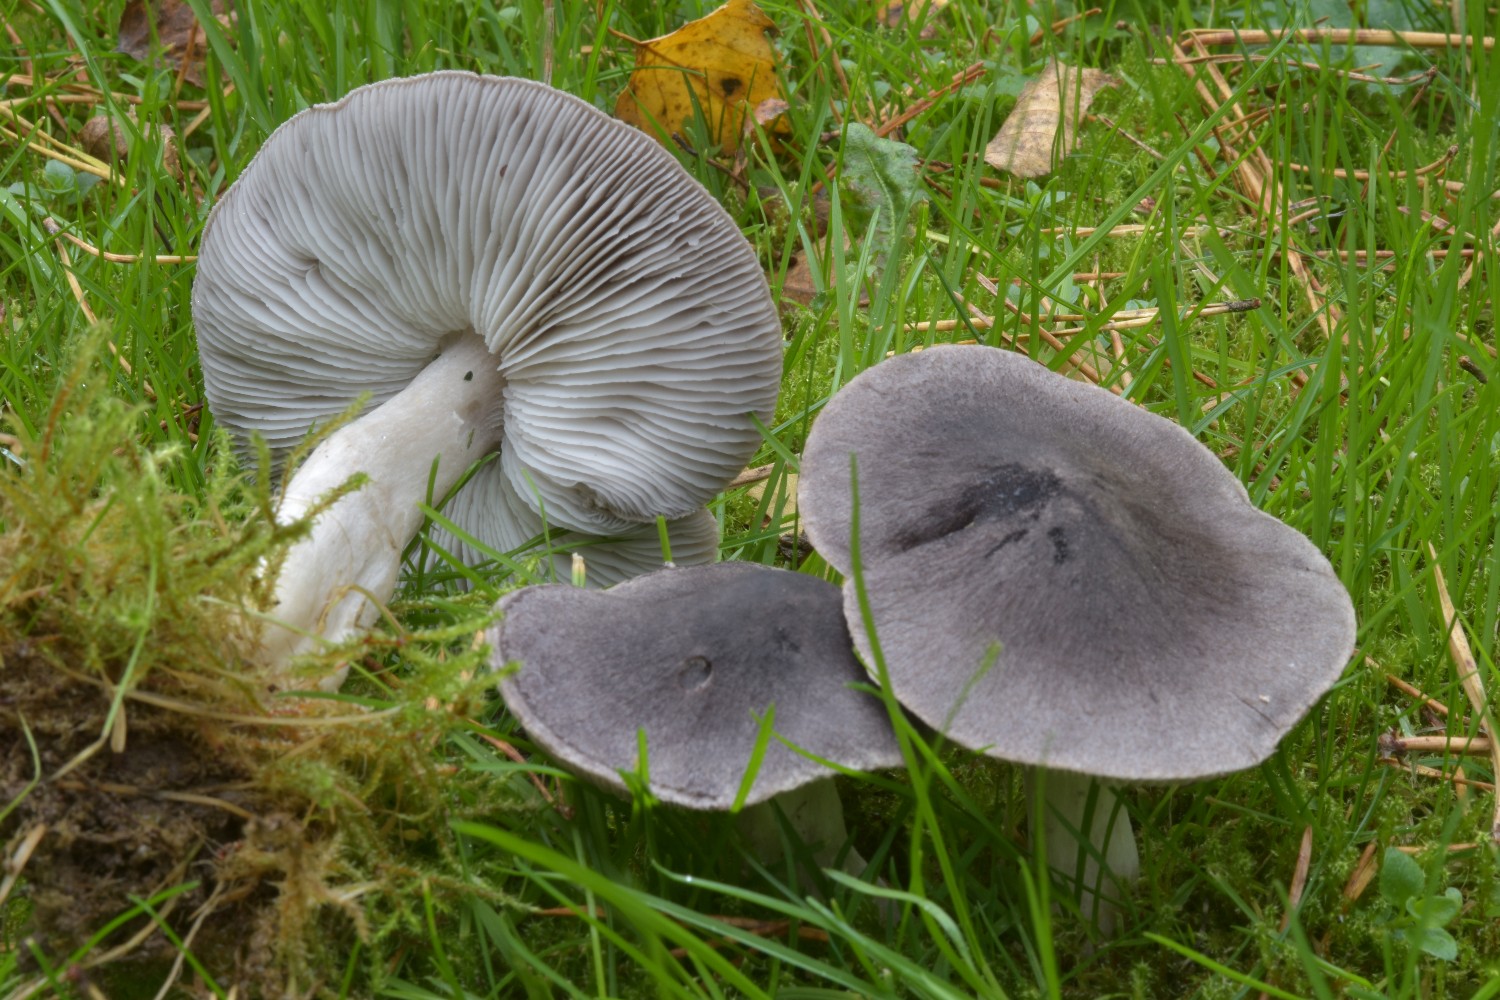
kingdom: Fungi
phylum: Basidiomycota
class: Agaricomycetes
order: Agaricales
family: Tricholomataceae
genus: Tricholoma
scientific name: Tricholoma terreum
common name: jordfarvet ridderhat
